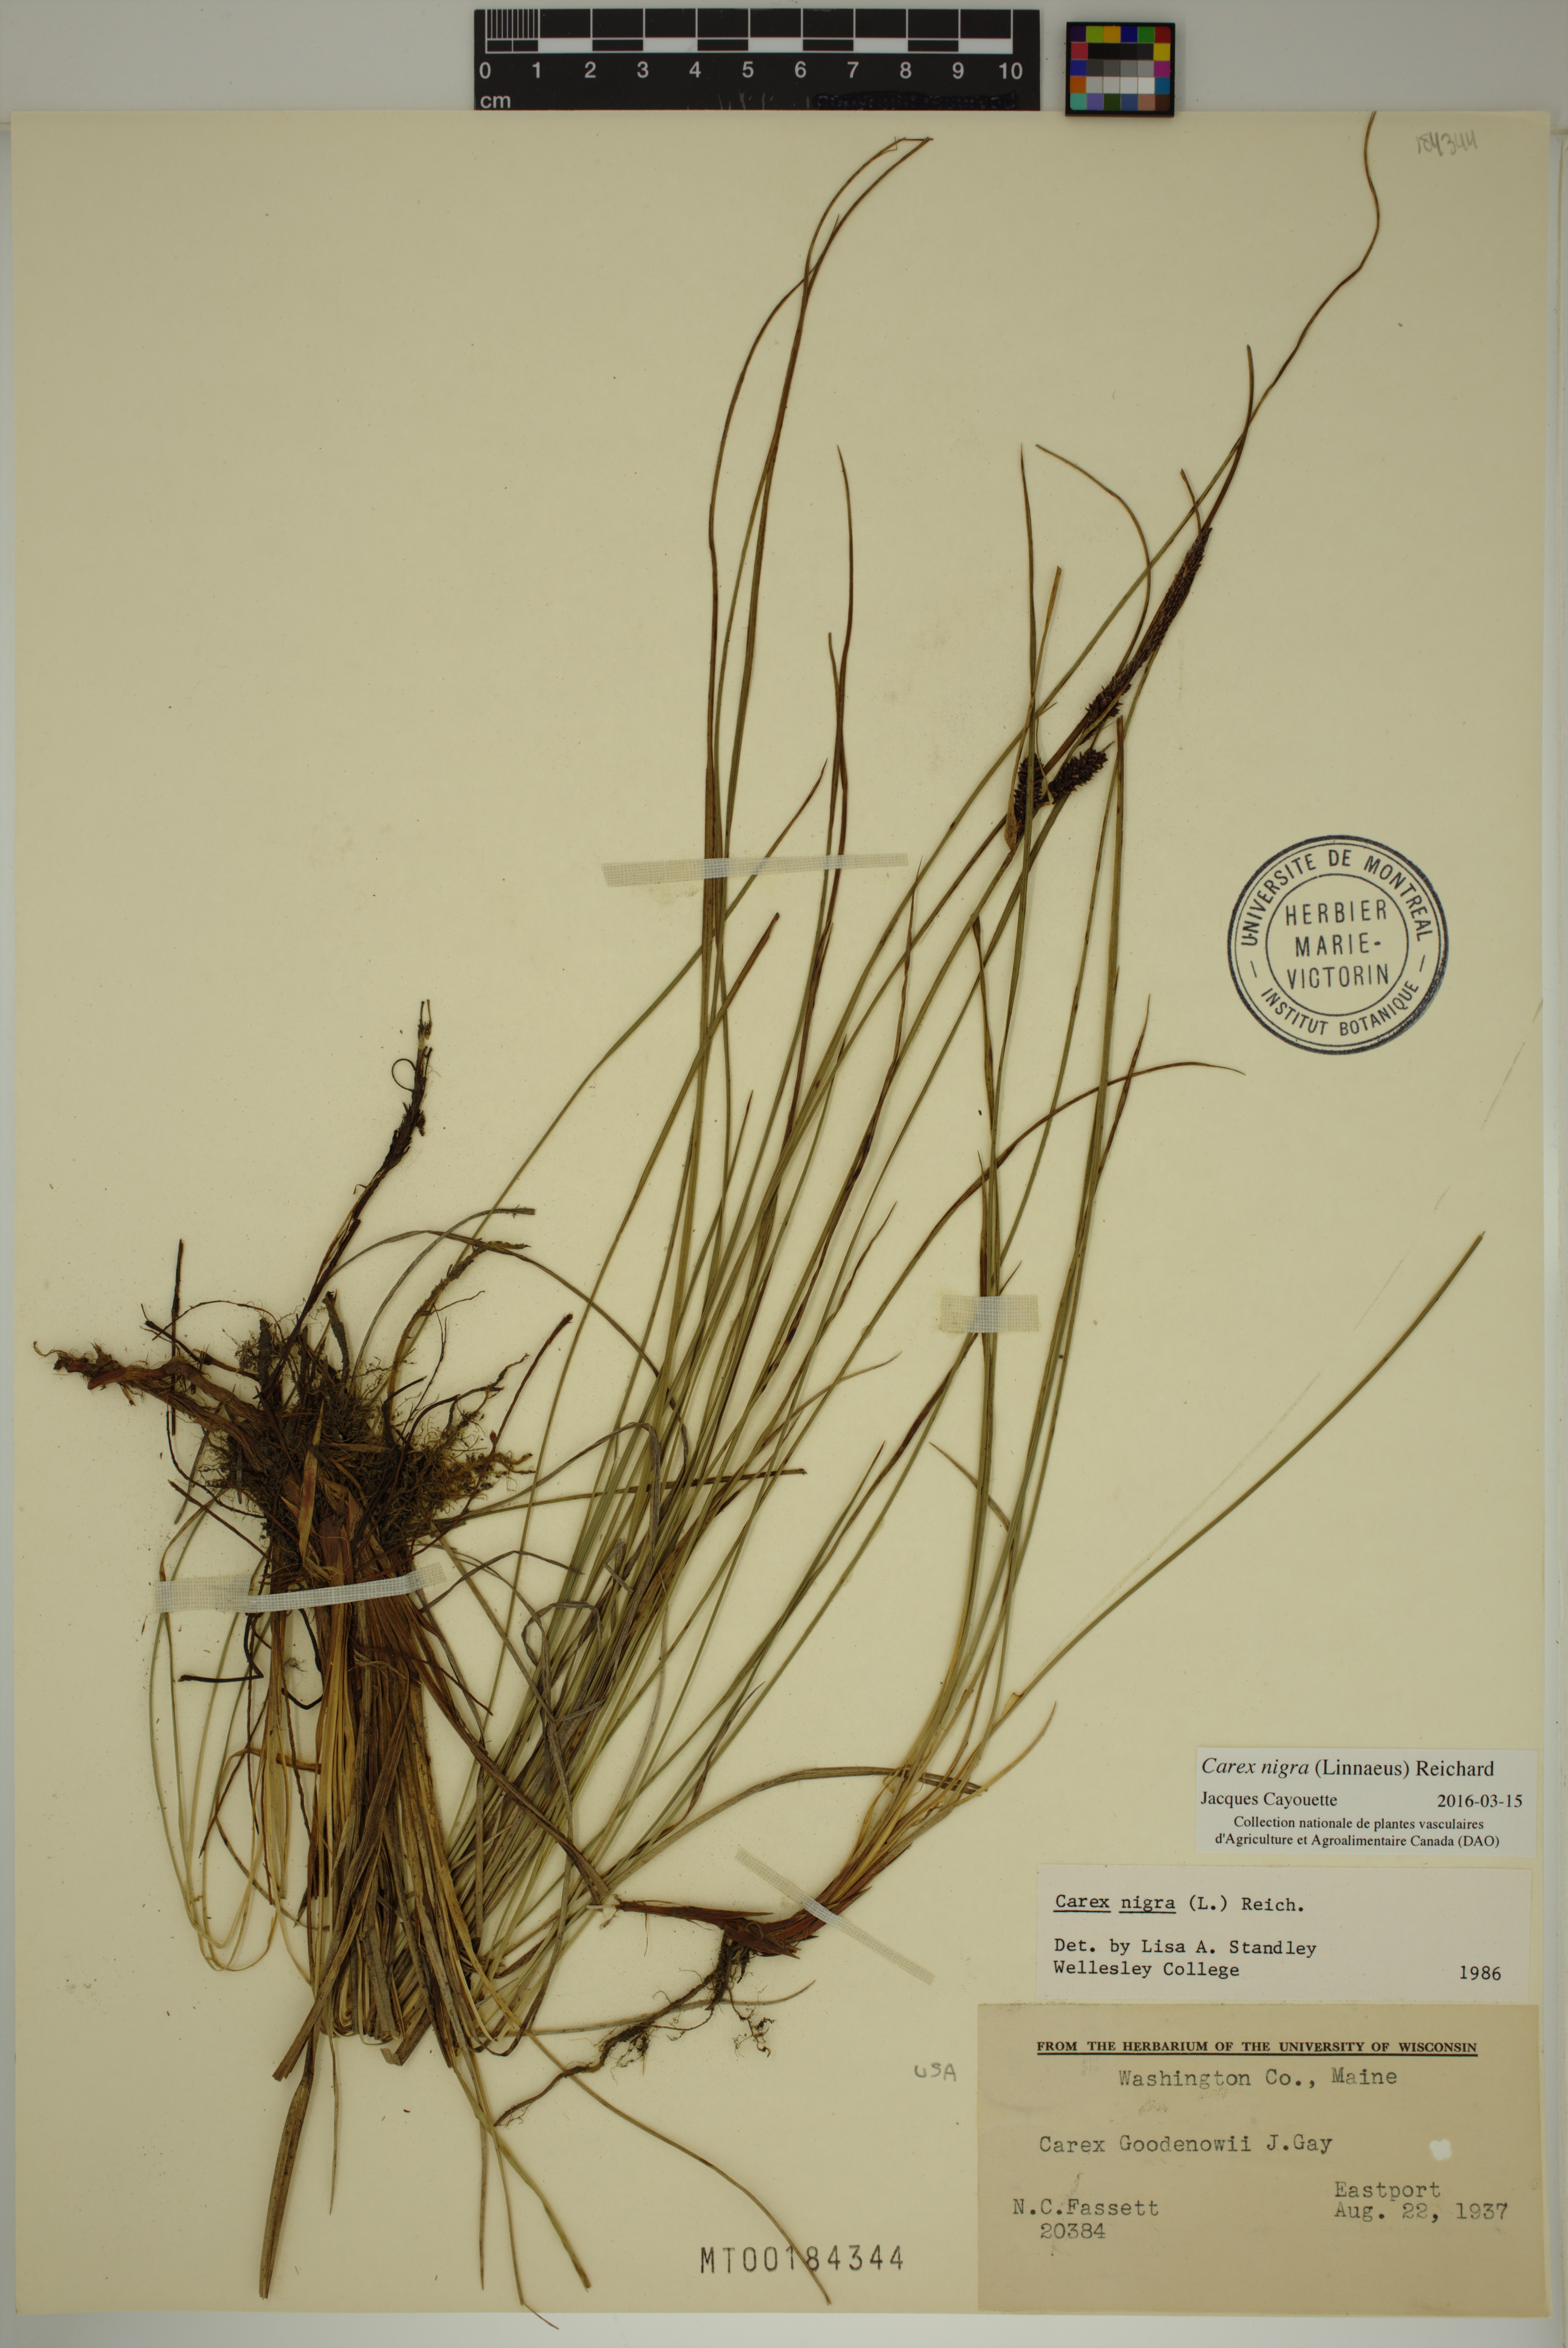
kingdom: Plantae
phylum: Tracheophyta
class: Liliopsida
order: Poales
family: Cyperaceae
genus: Carex
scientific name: Carex nigra
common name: Common sedge
